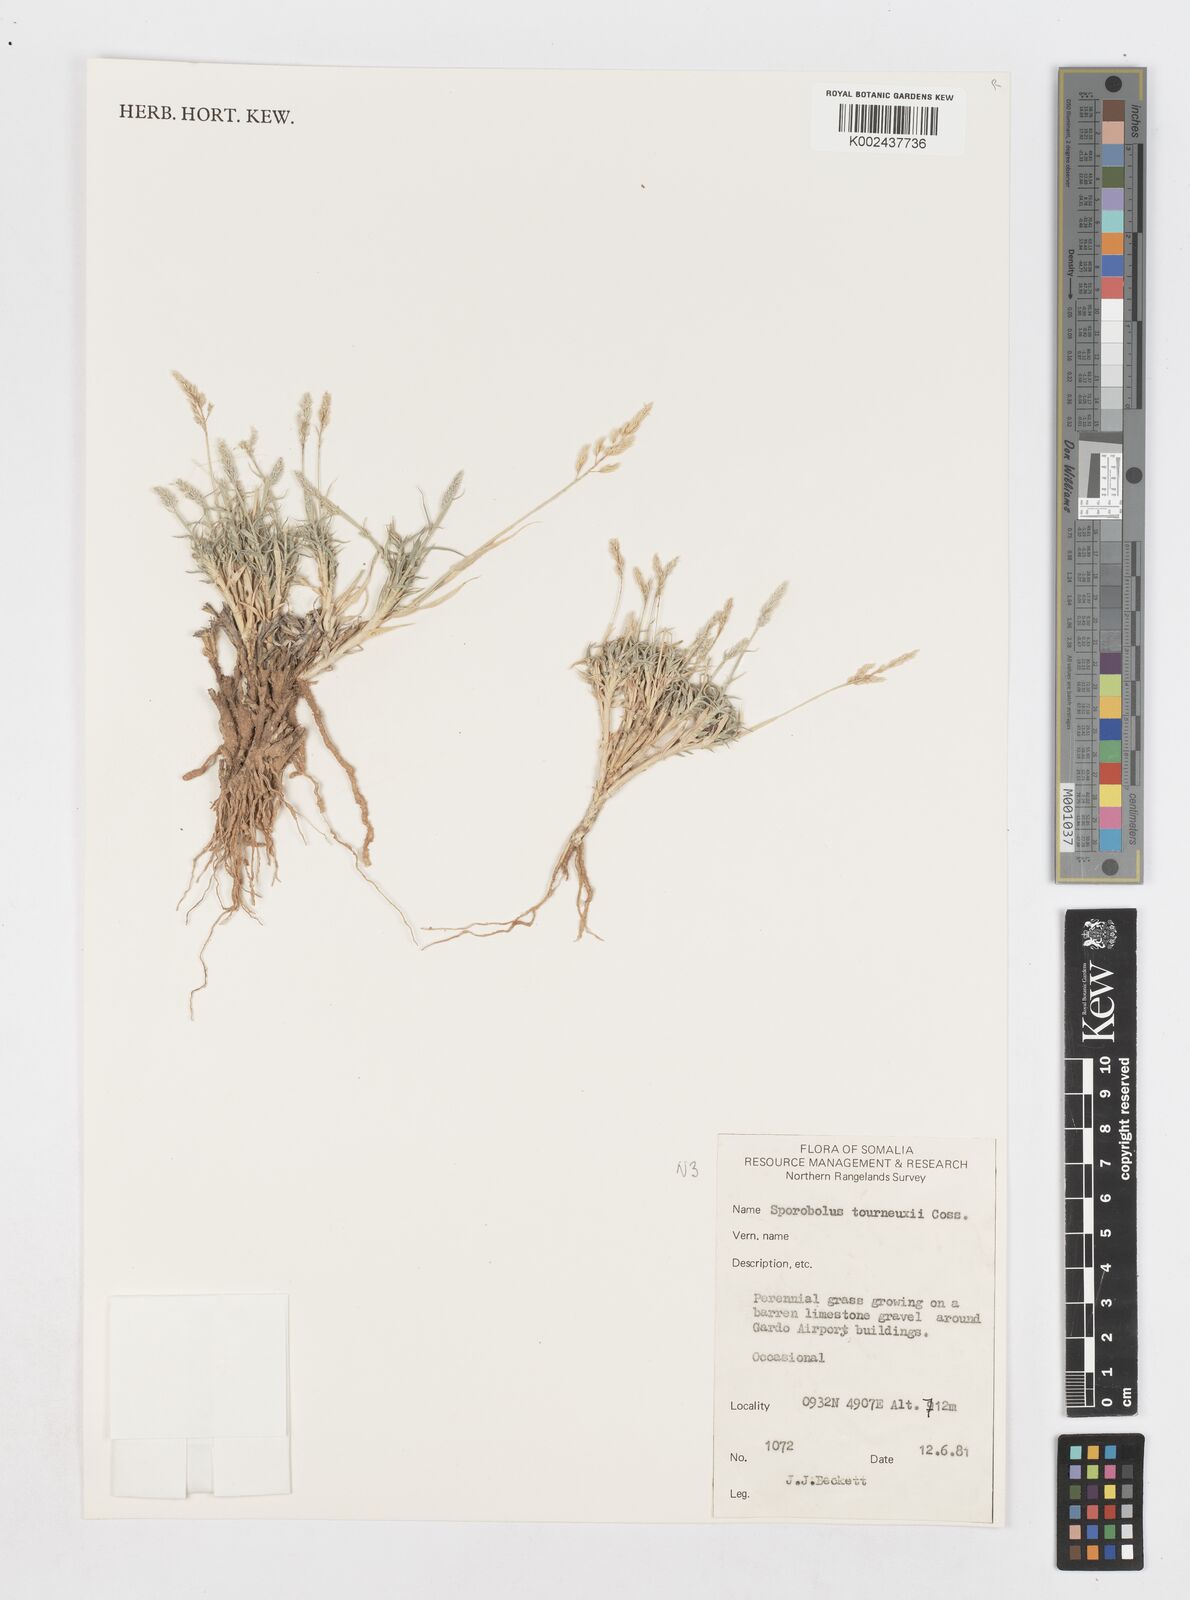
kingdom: Plantae
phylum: Tracheophyta
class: Liliopsida
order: Poales
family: Poaceae
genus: Sporobolus
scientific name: Sporobolus tourneuxii
